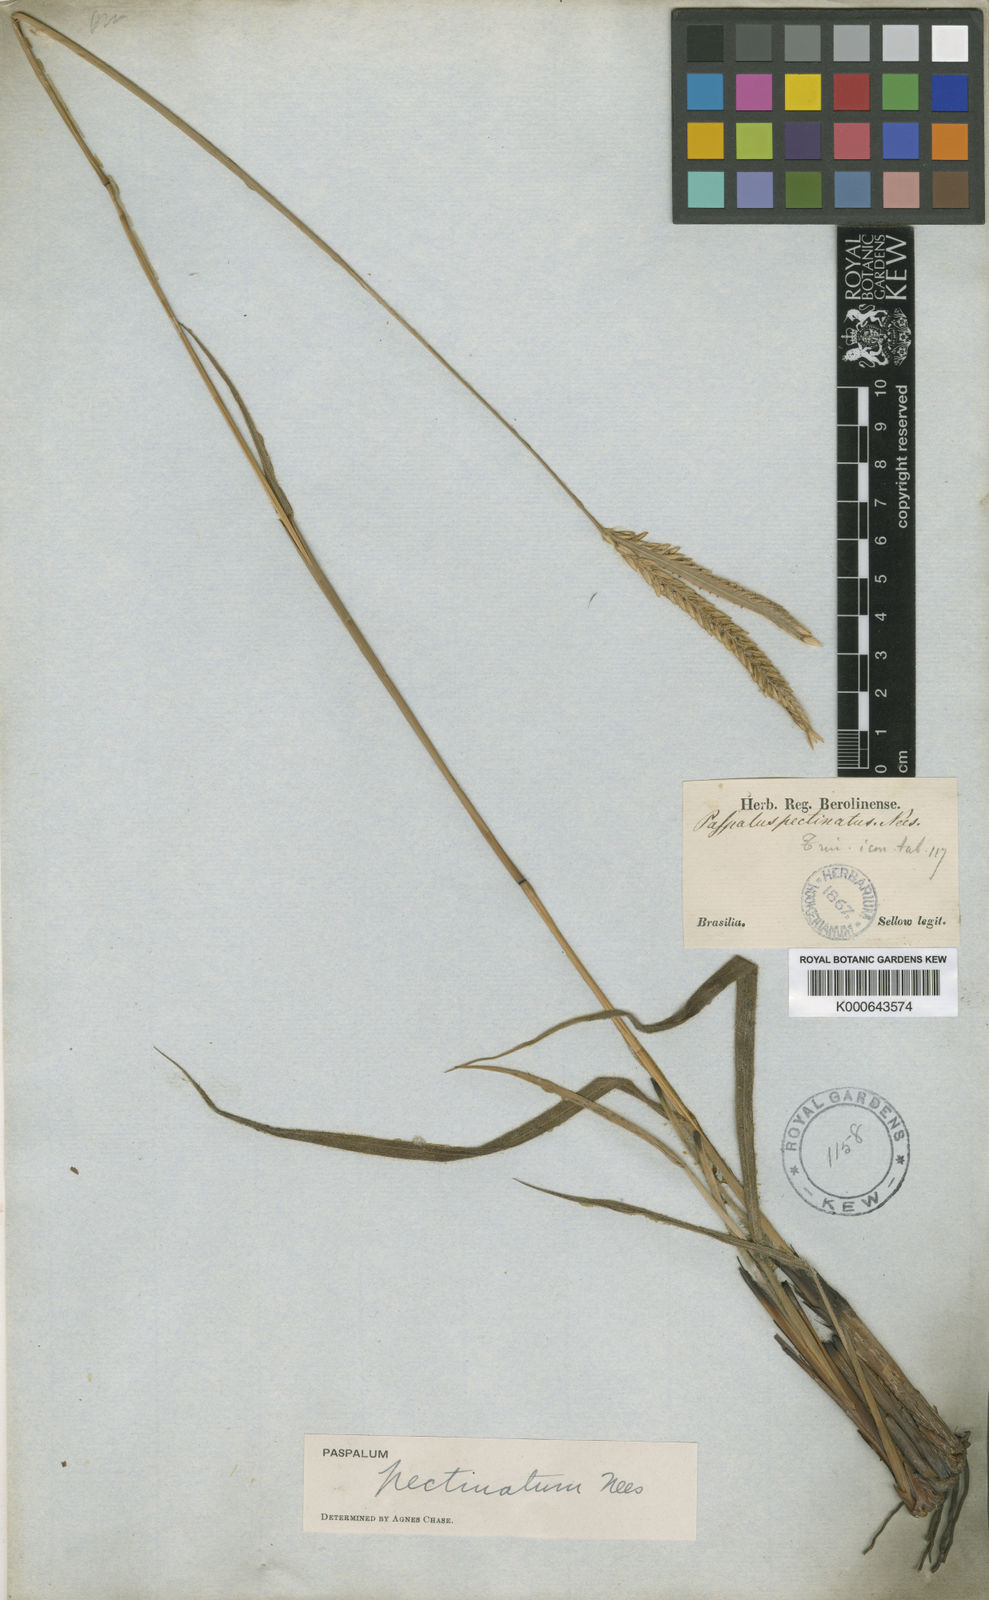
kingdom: Plantae
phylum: Tracheophyta
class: Liliopsida
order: Poales
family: Poaceae
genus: Paspalum
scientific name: Paspalum
